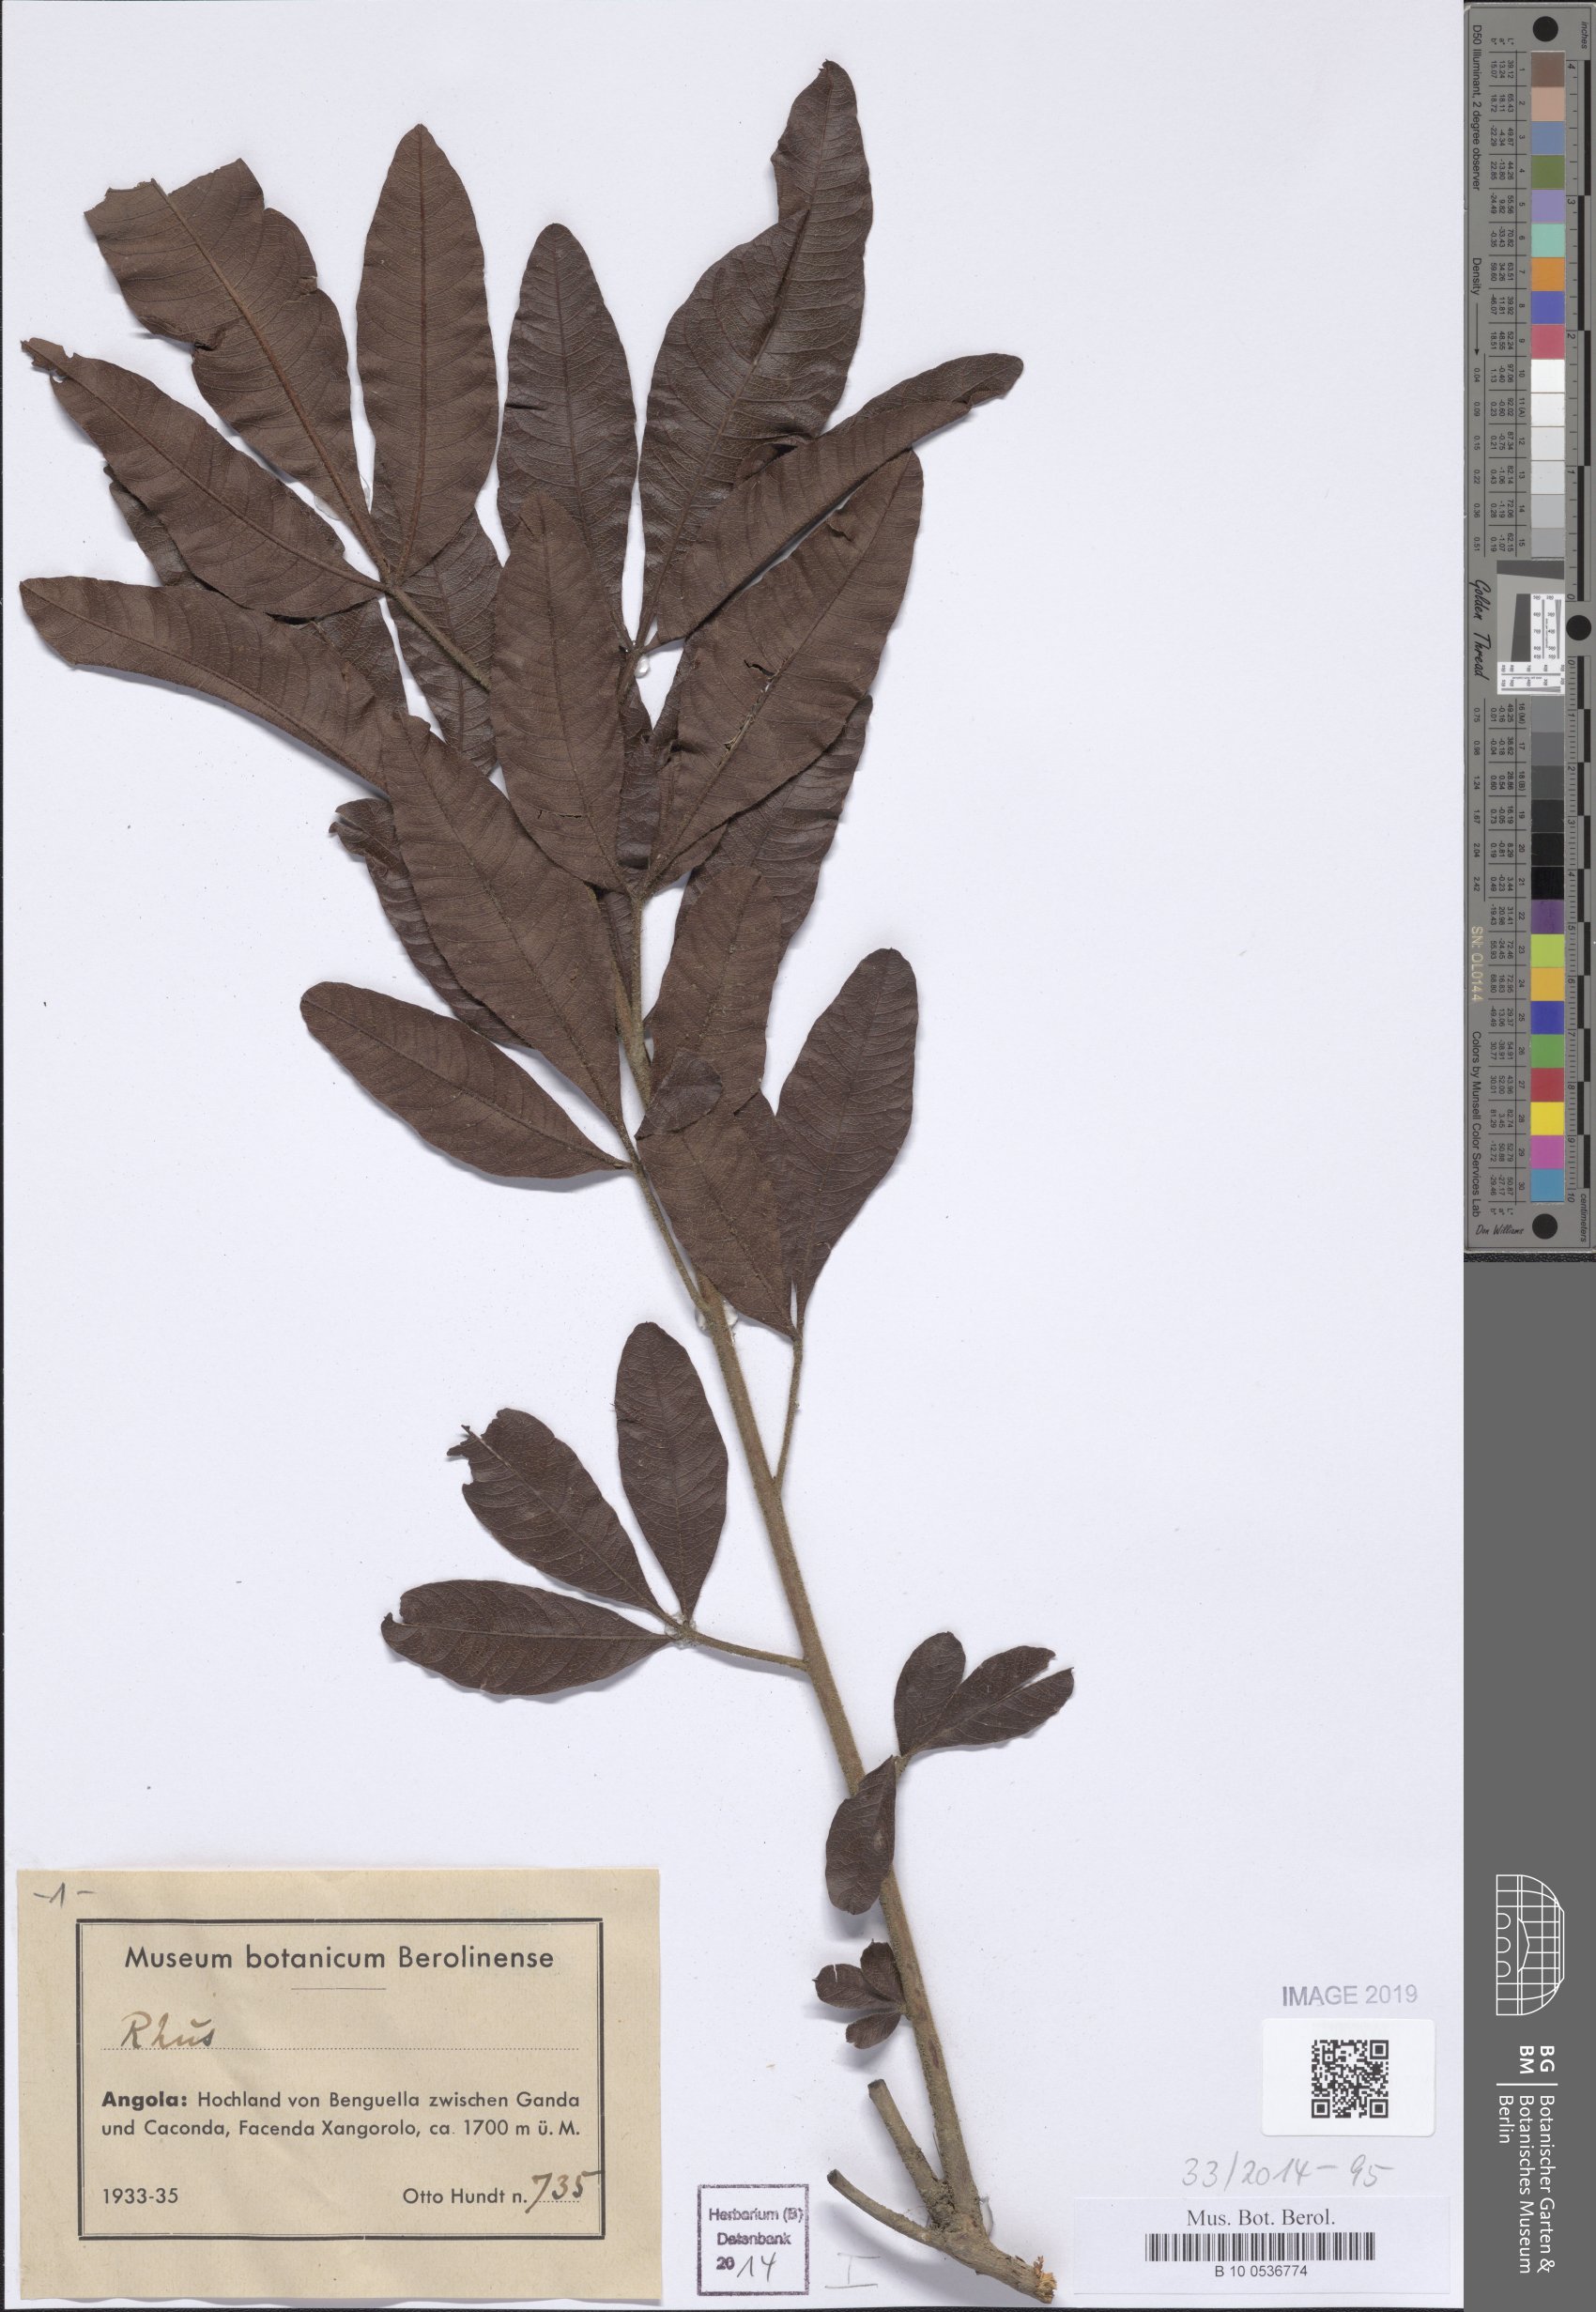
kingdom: Plantae
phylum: Tracheophyta
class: Magnoliopsida
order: Sapindales
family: Anacardiaceae
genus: Rhus
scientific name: Rhus
